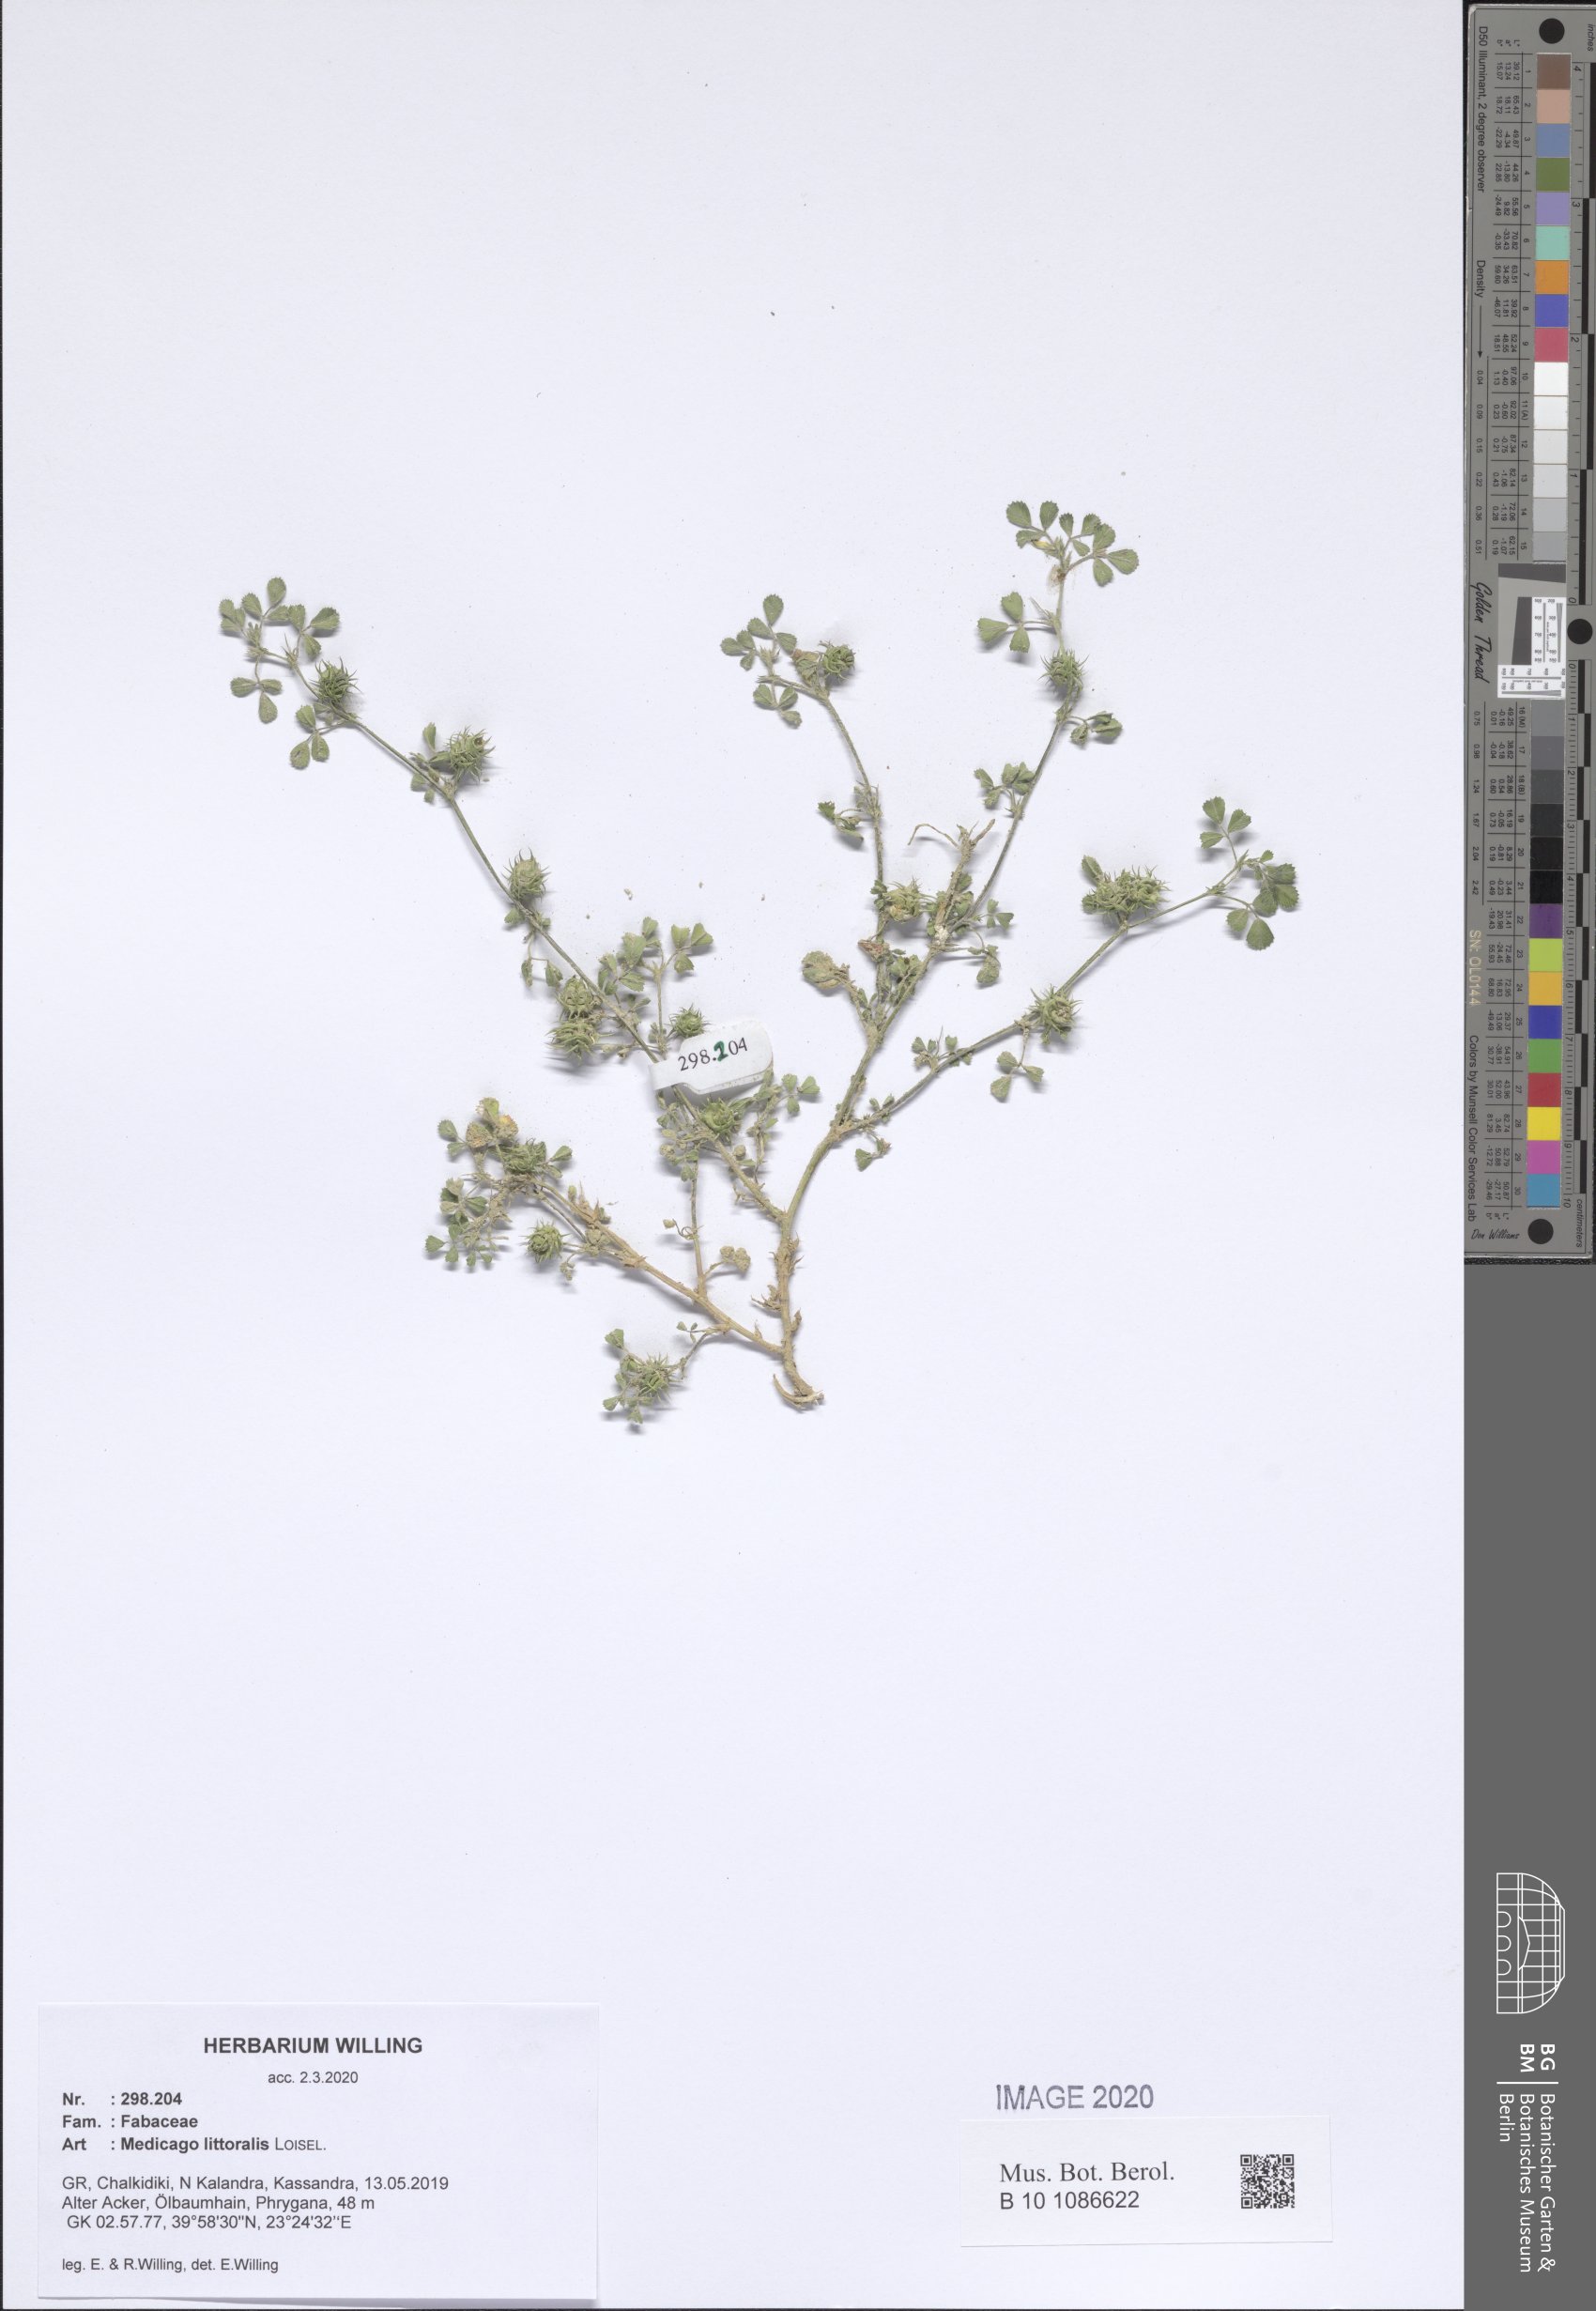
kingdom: Plantae
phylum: Tracheophyta
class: Magnoliopsida
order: Fabales
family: Fabaceae
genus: Medicago
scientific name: Medicago littoralis
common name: Shore medick
